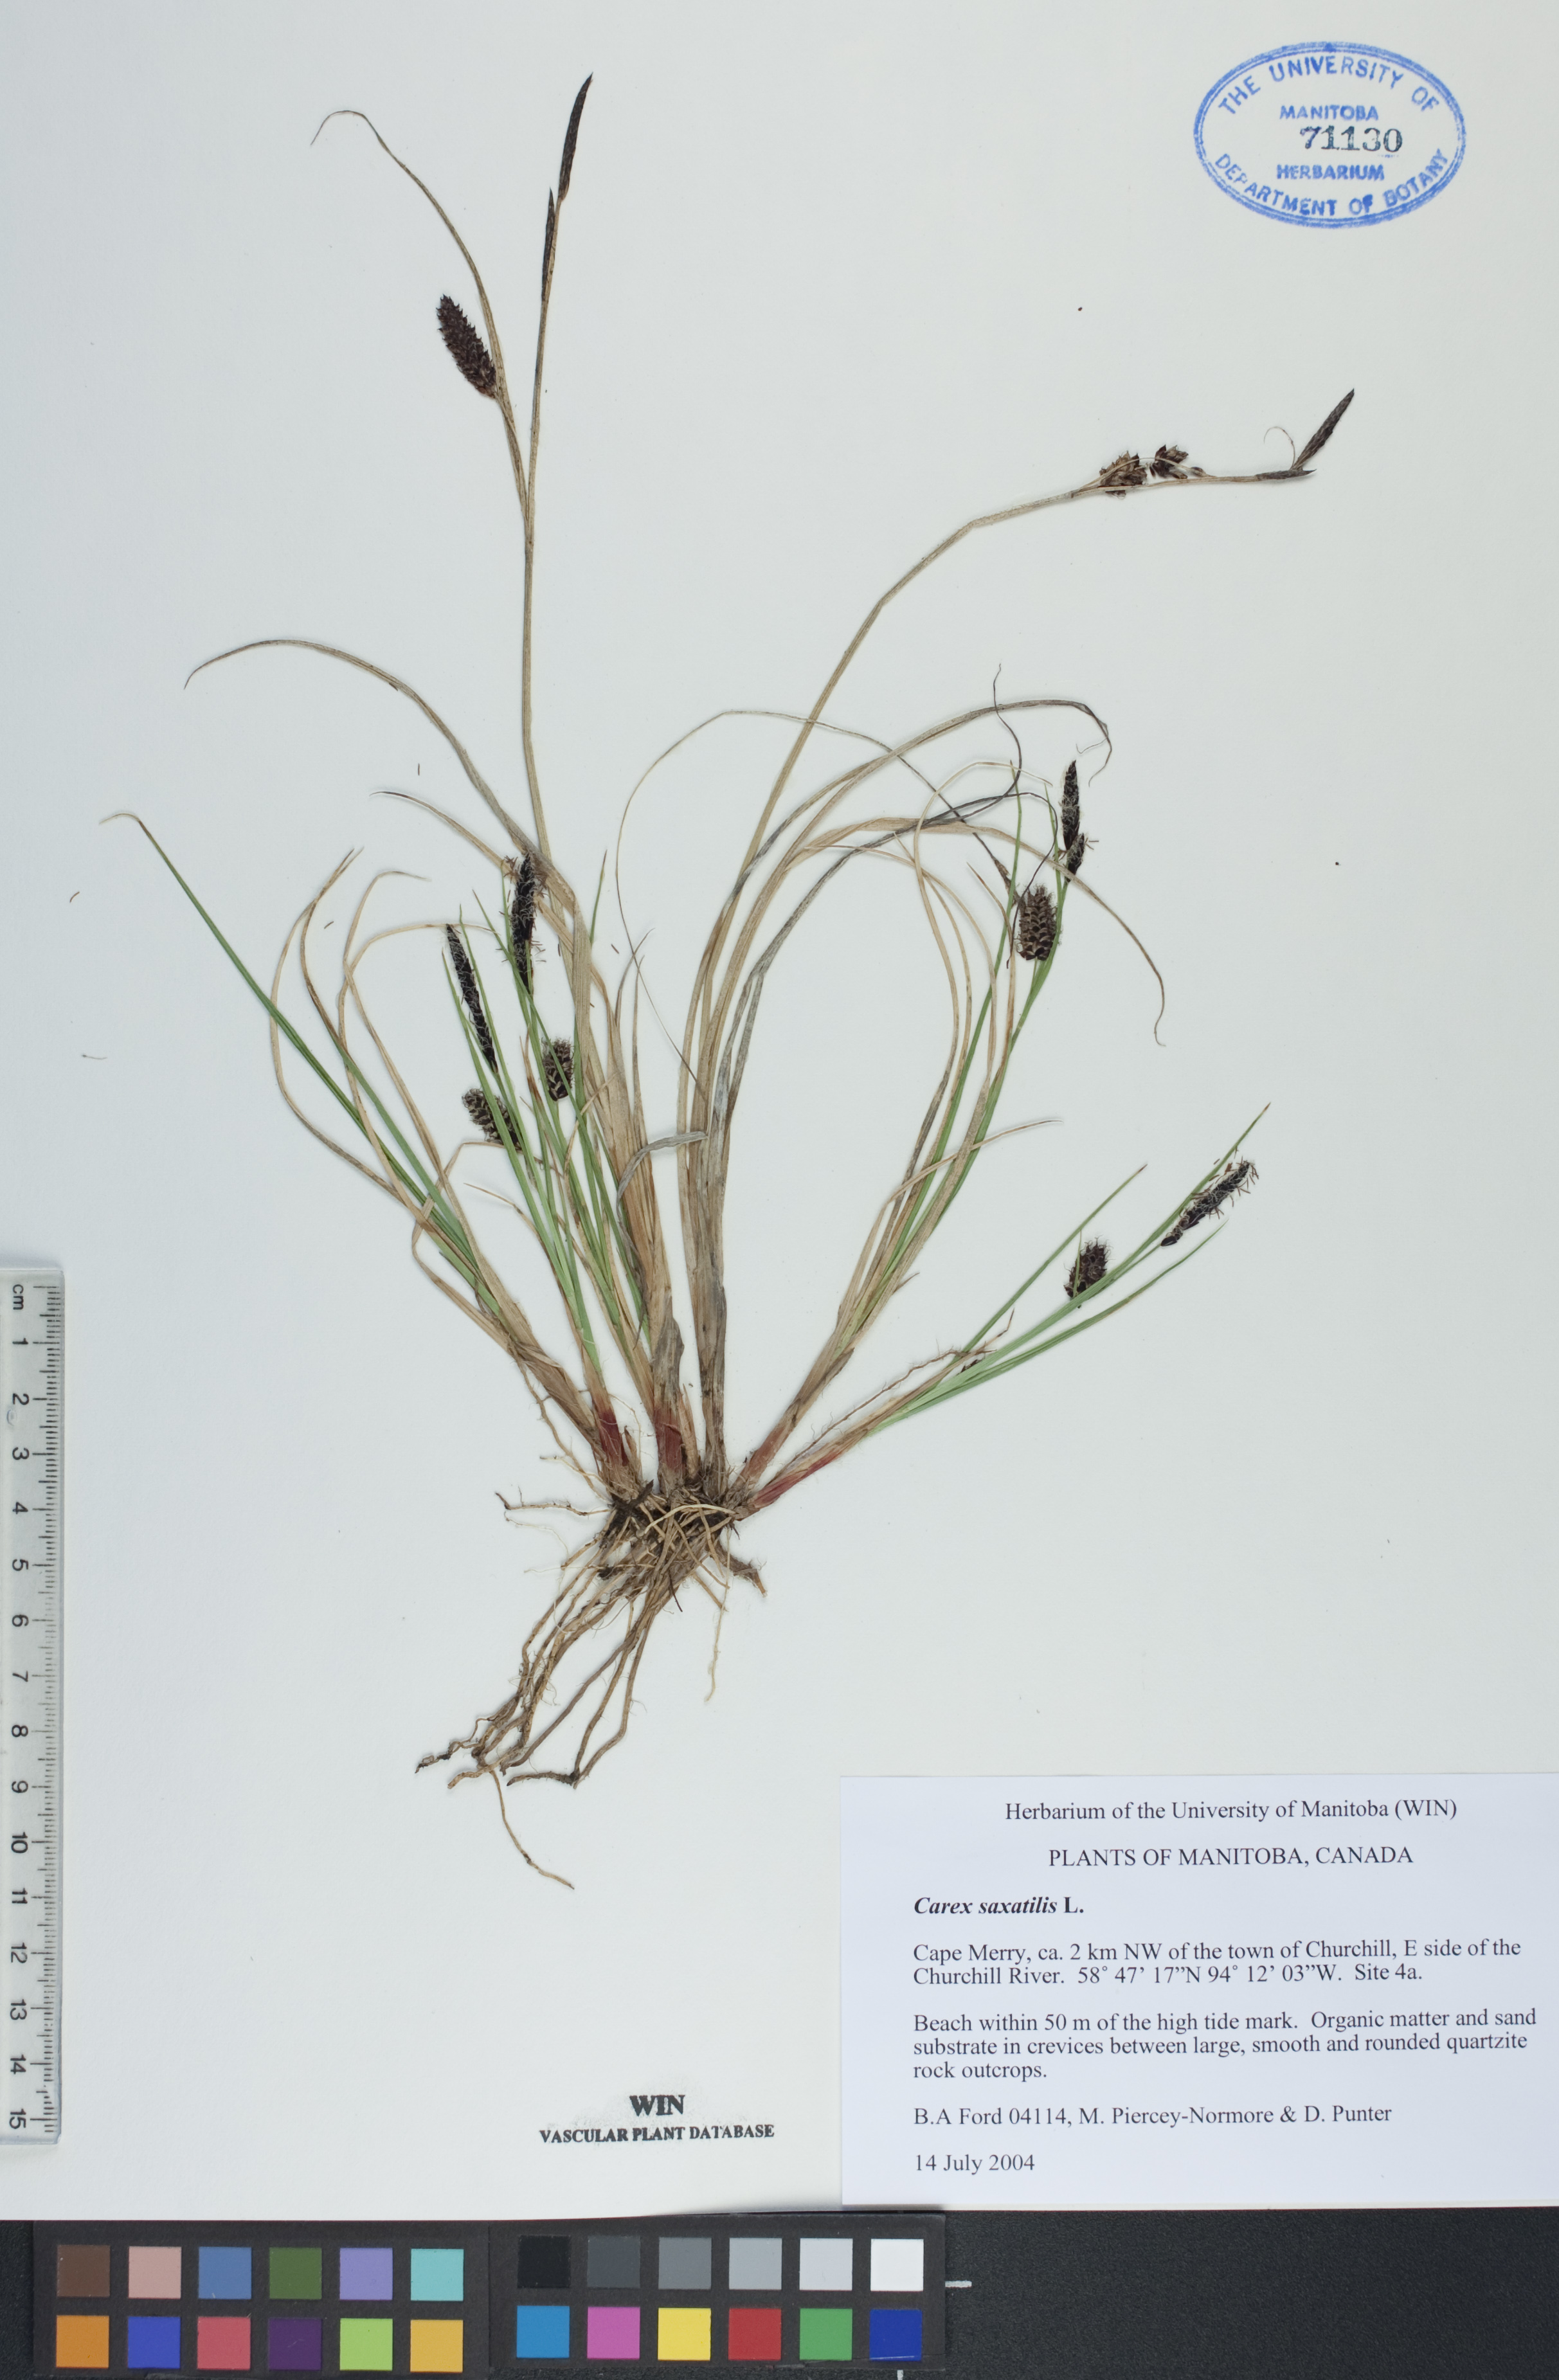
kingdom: Plantae
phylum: Tracheophyta
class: Liliopsida
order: Poales
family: Cyperaceae
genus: Carex
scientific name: Carex saxatilis
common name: Russet sedge
